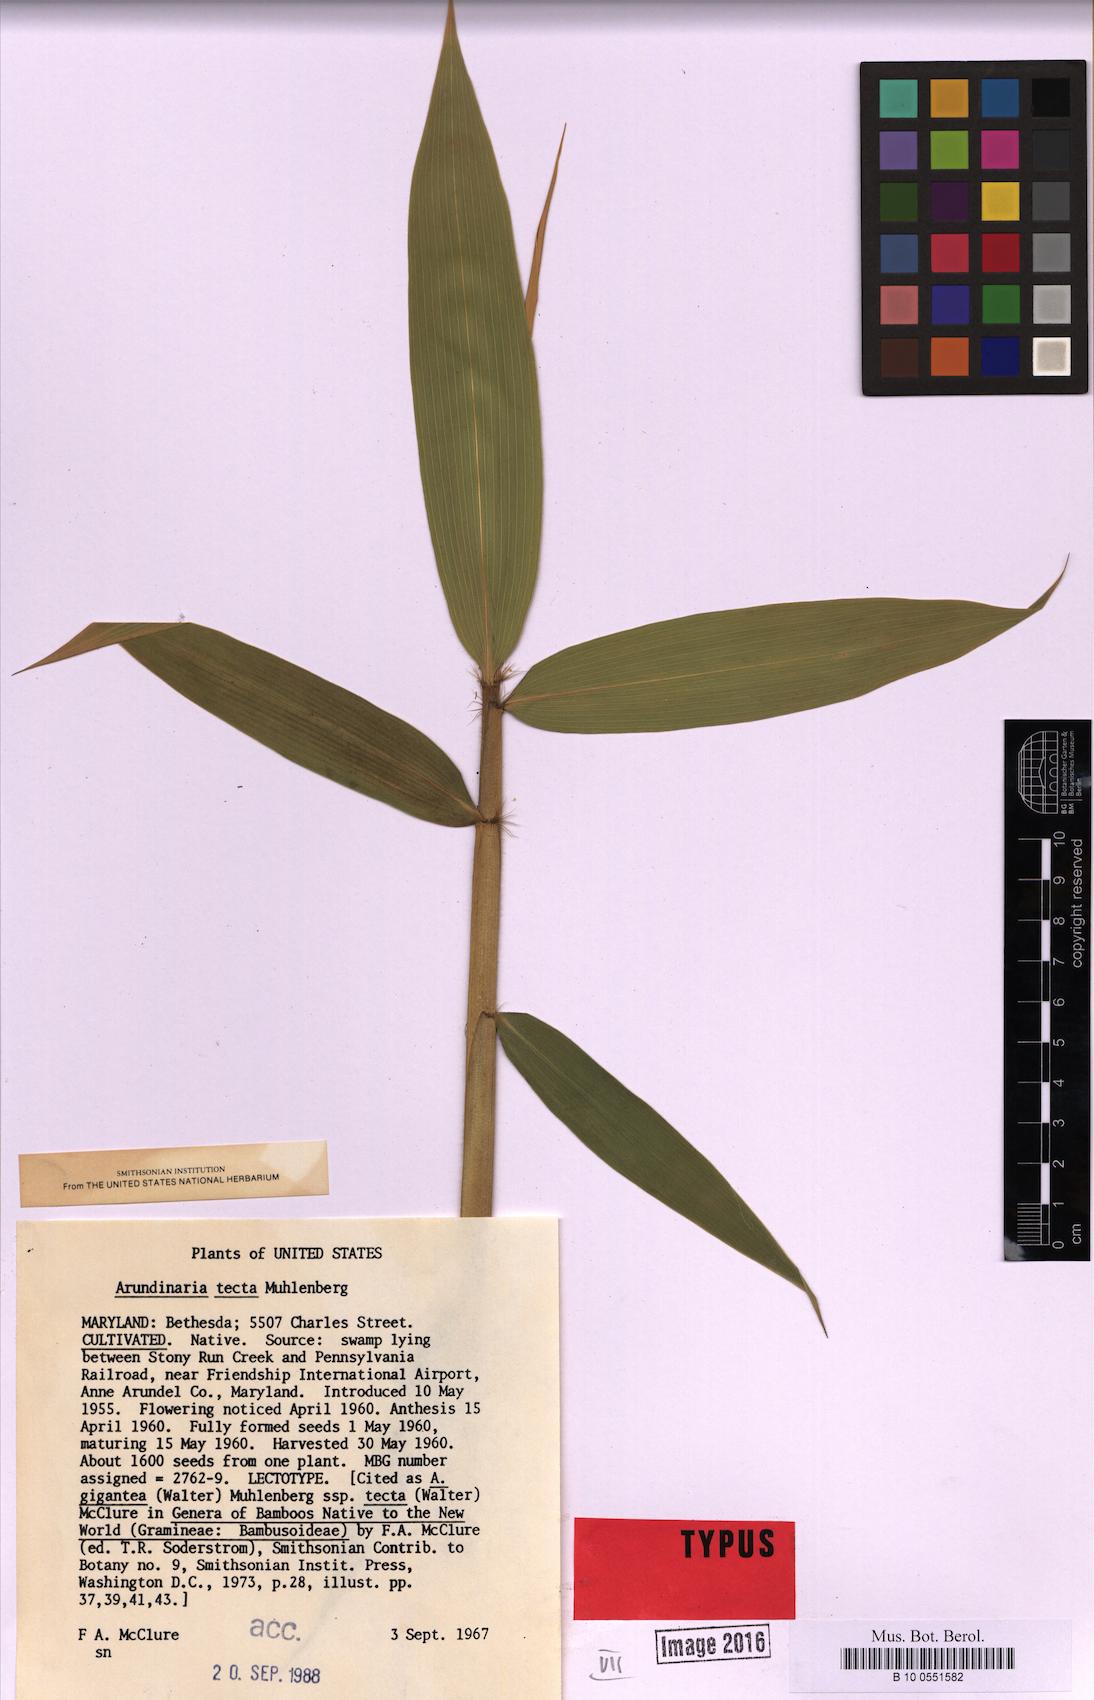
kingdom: Plantae
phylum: Tracheophyta
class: Liliopsida
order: Poales
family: Poaceae
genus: Arundinaria
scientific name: Arundinaria tecta
